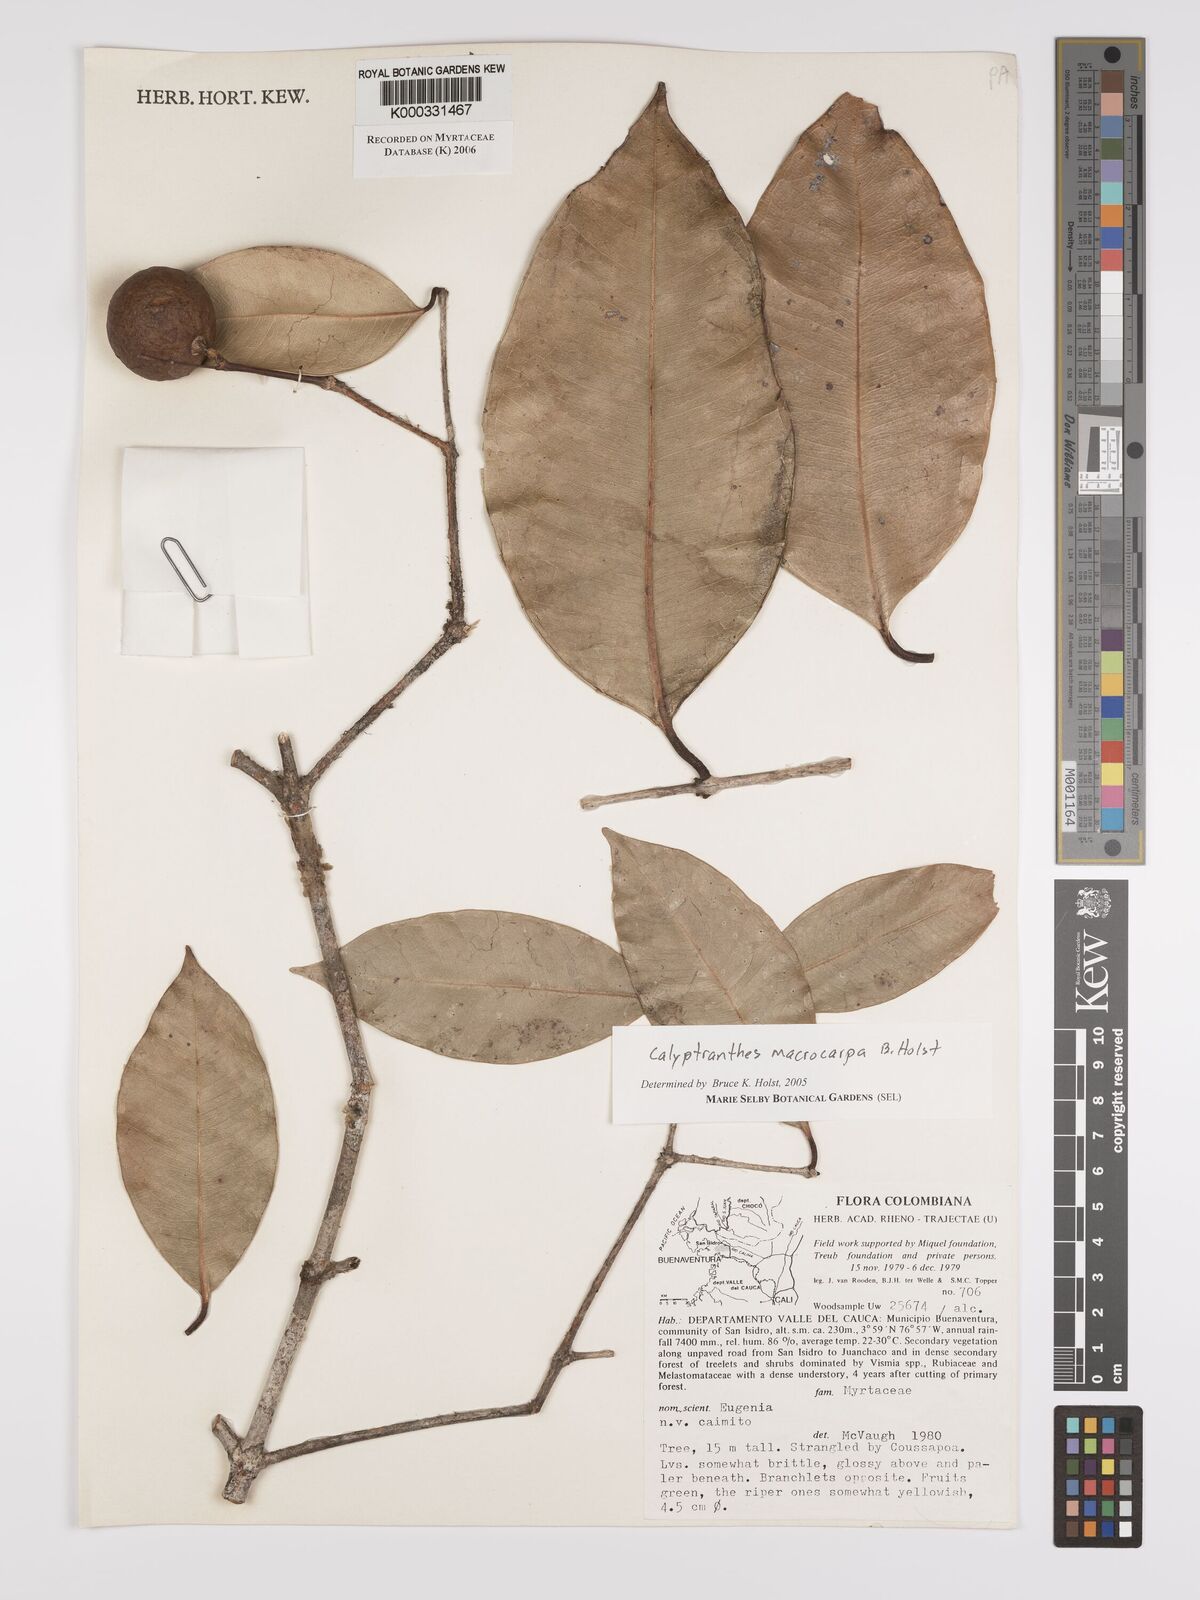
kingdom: Plantae
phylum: Tracheophyta
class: Magnoliopsida
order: Myrtales
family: Myrtaceae
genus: Myrcia
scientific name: Myrcia neomacrocarpa
